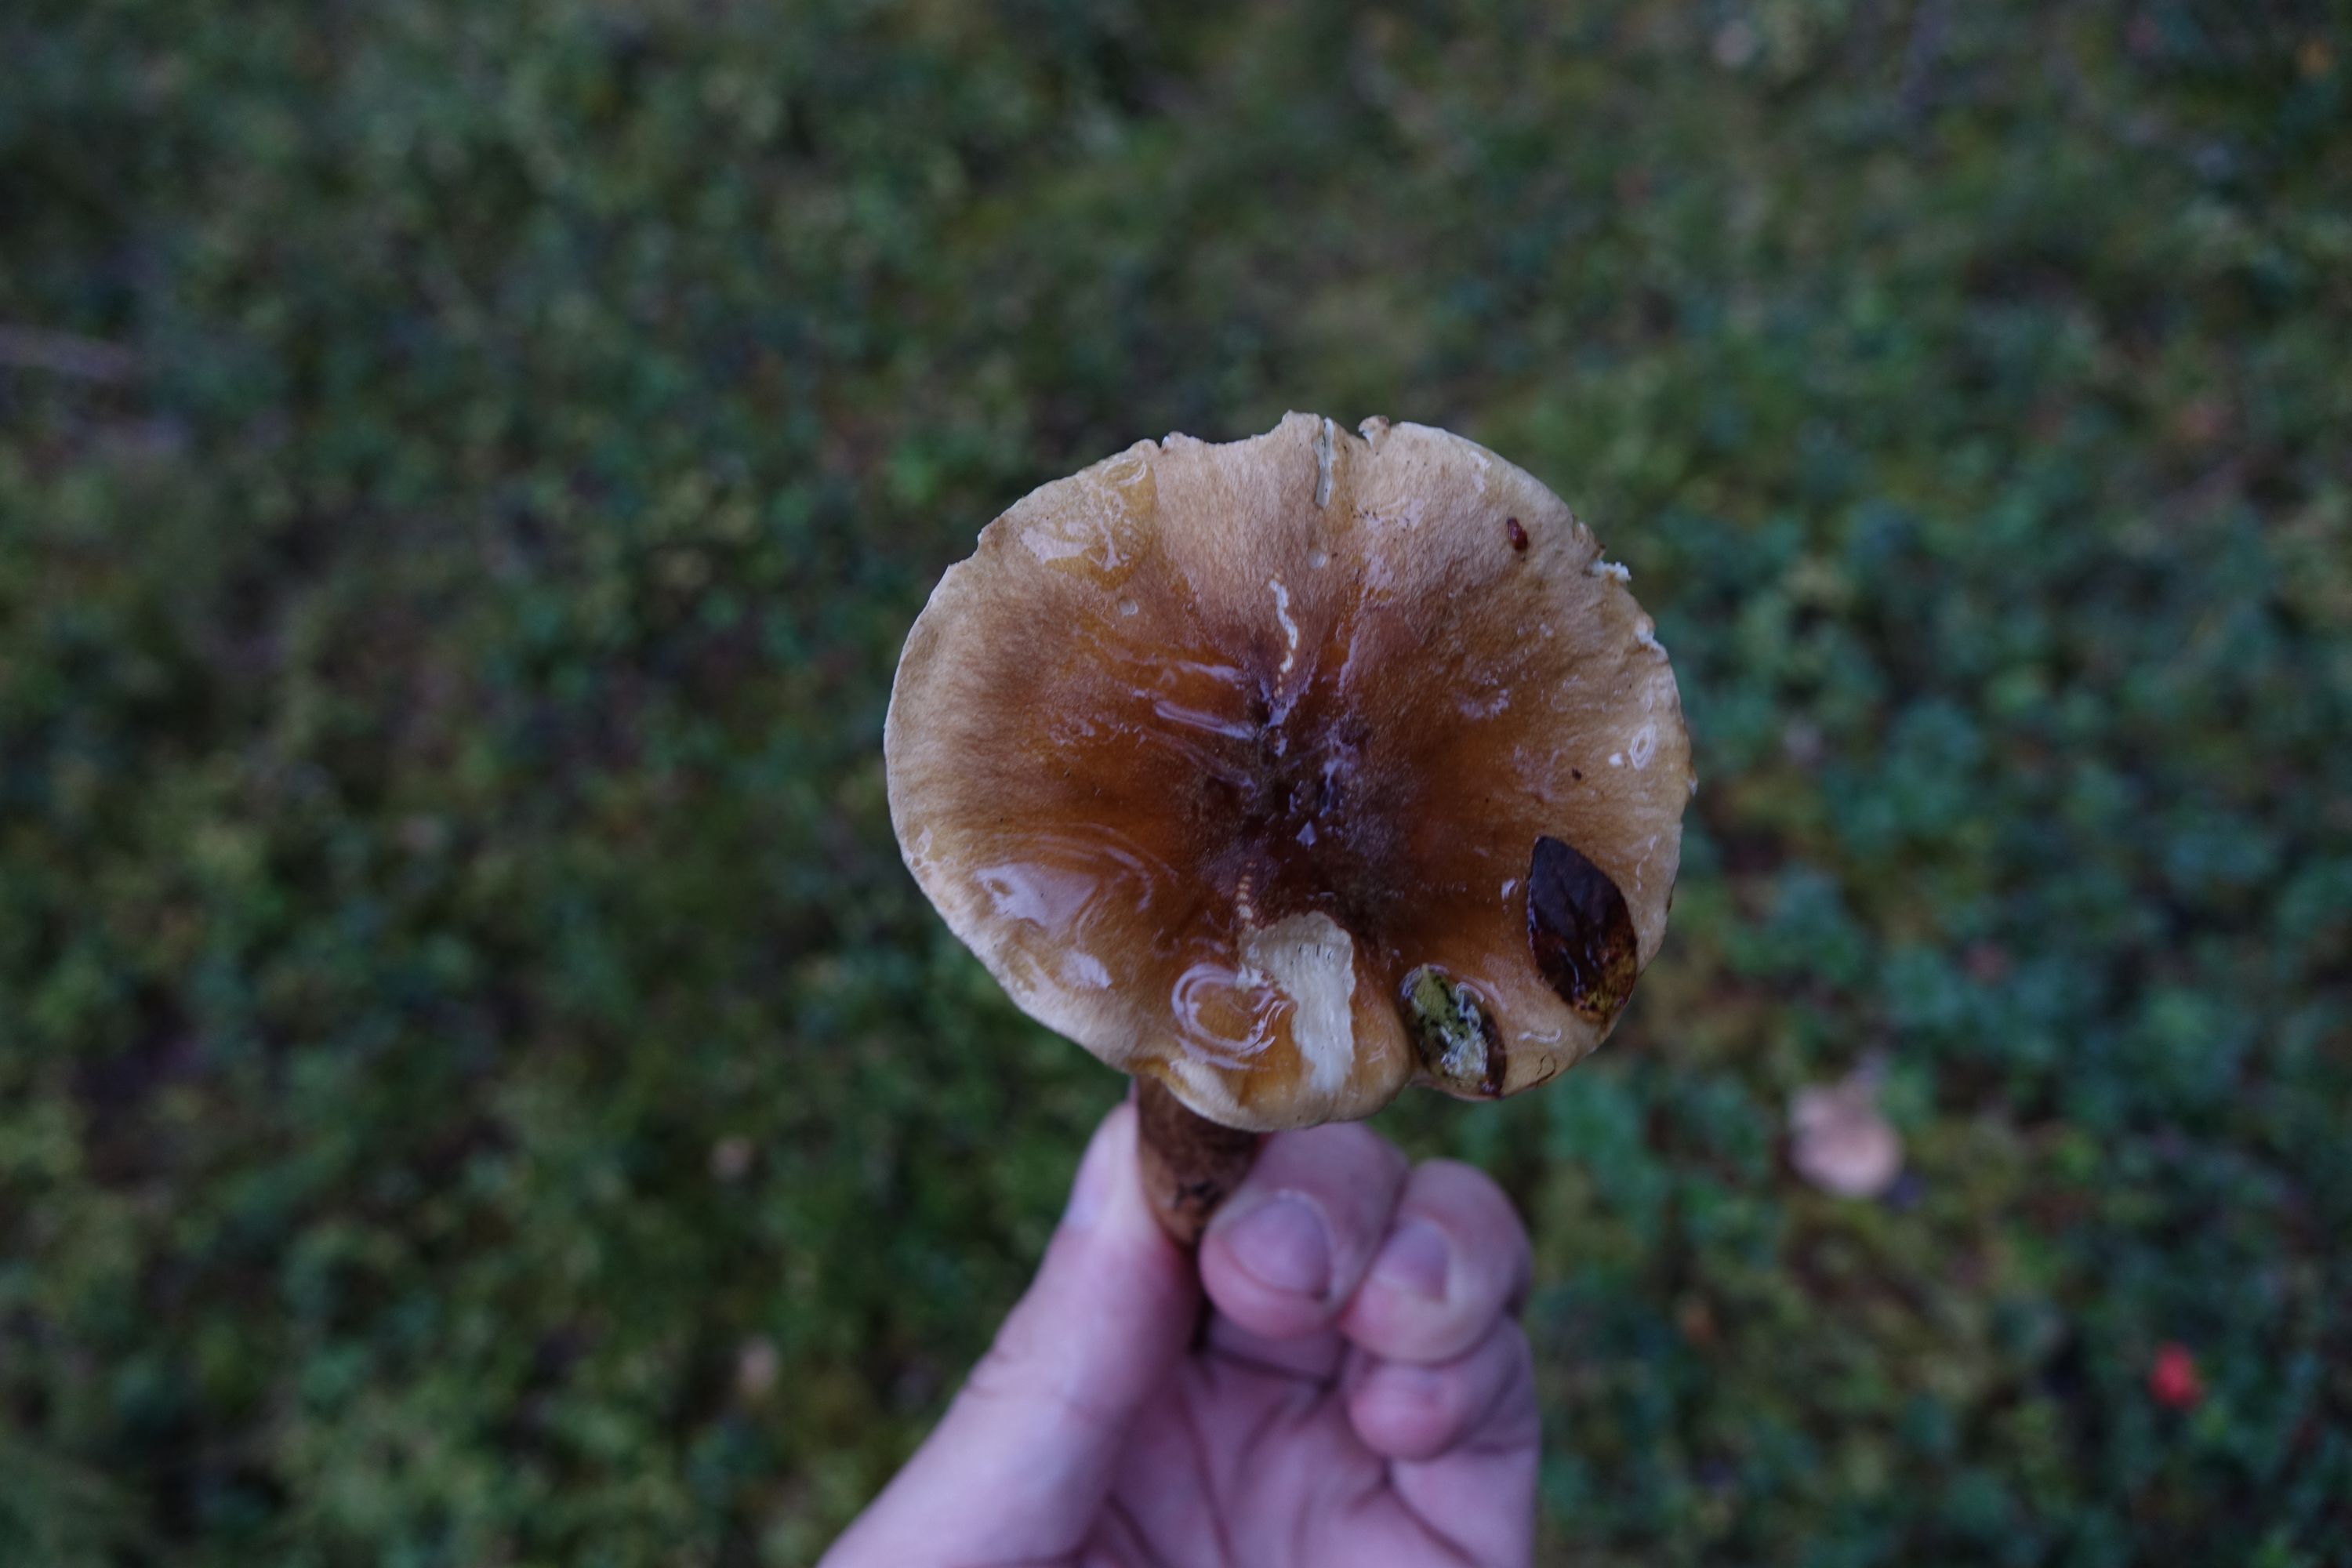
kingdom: Fungi
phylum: Basidiomycota
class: Agaricomycetes
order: Agaricales
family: Tricholomataceae
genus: Tricholoma
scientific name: Tricholoma fucatum
